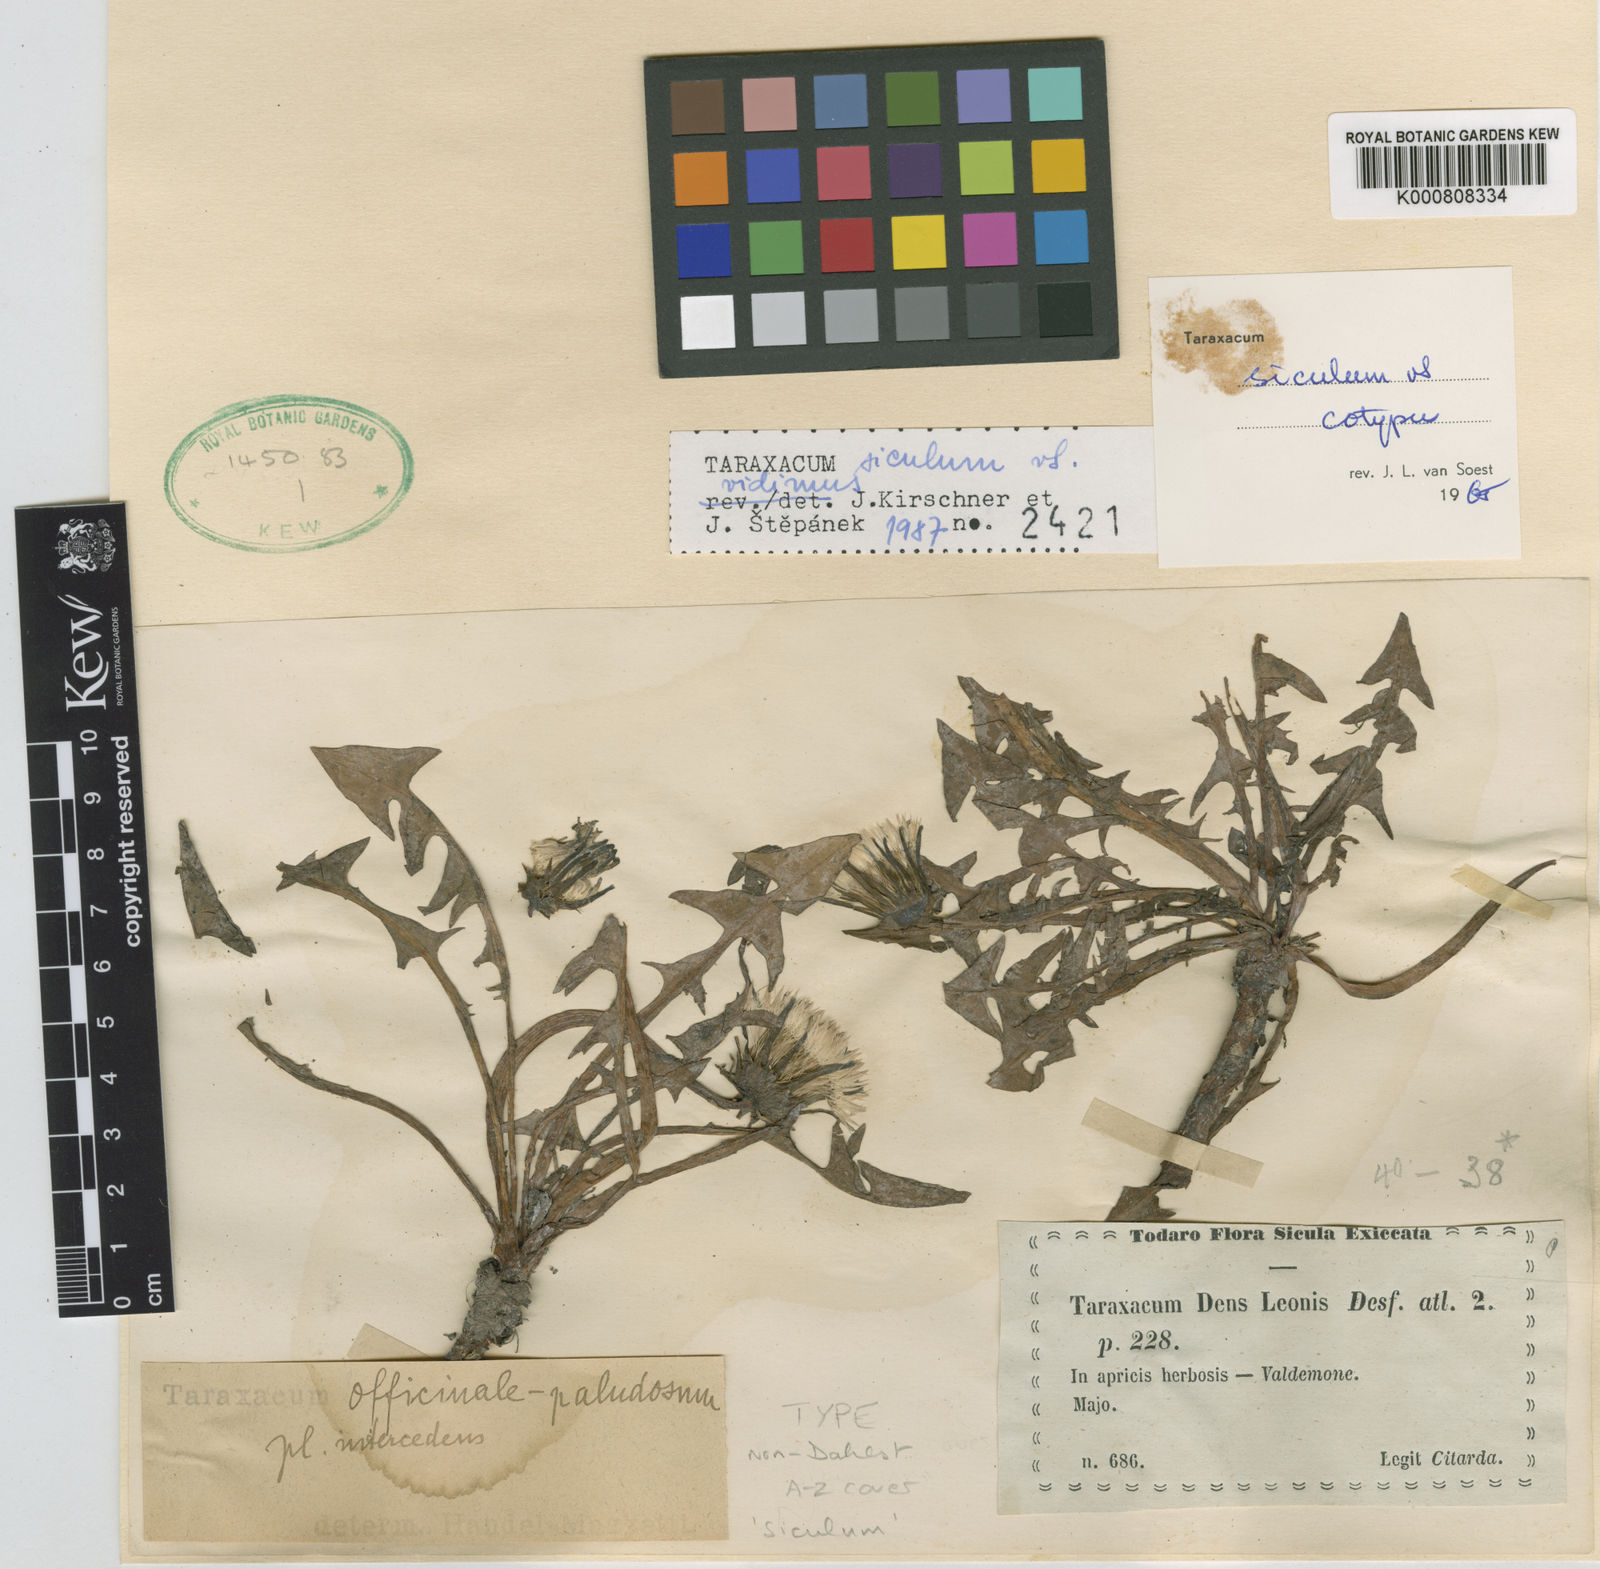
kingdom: Plantae
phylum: Tracheophyta
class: Magnoliopsida
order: Asterales
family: Asteraceae
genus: Taraxacum
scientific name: Taraxacum siculum
